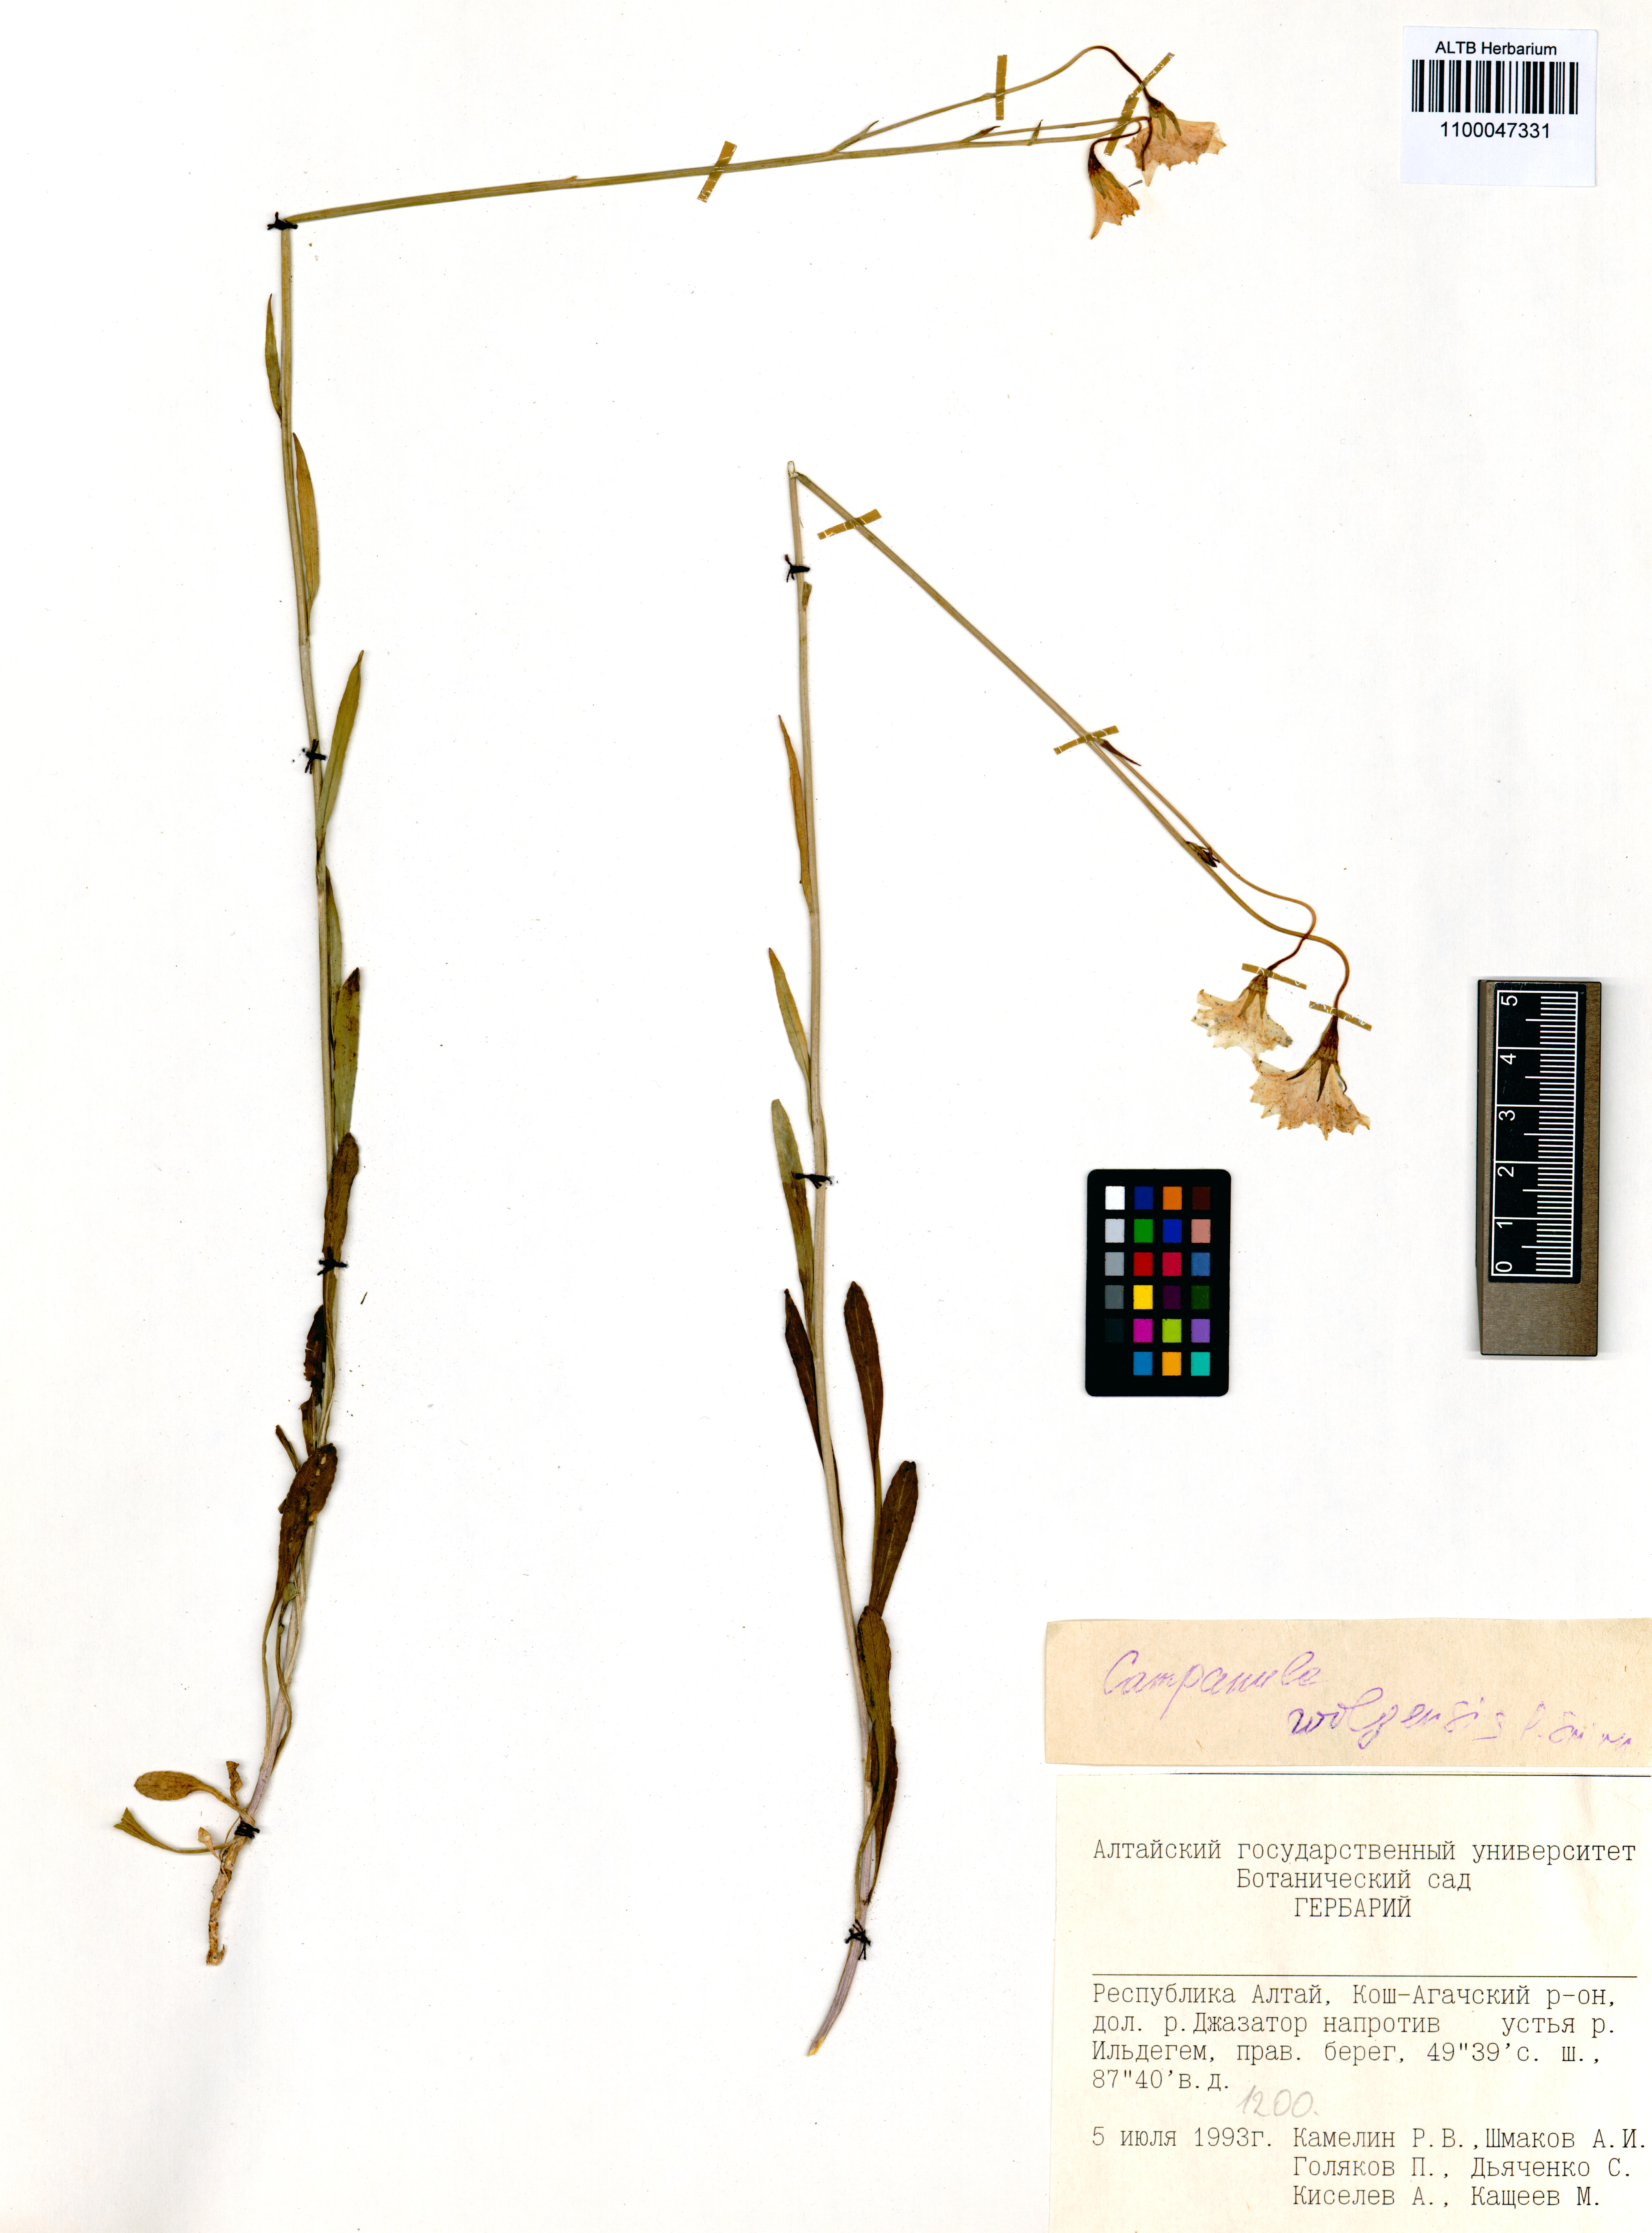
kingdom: Plantae
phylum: Tracheophyta
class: Magnoliopsida
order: Asterales
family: Campanulaceae
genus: Campanula
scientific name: Campanula stevenii
